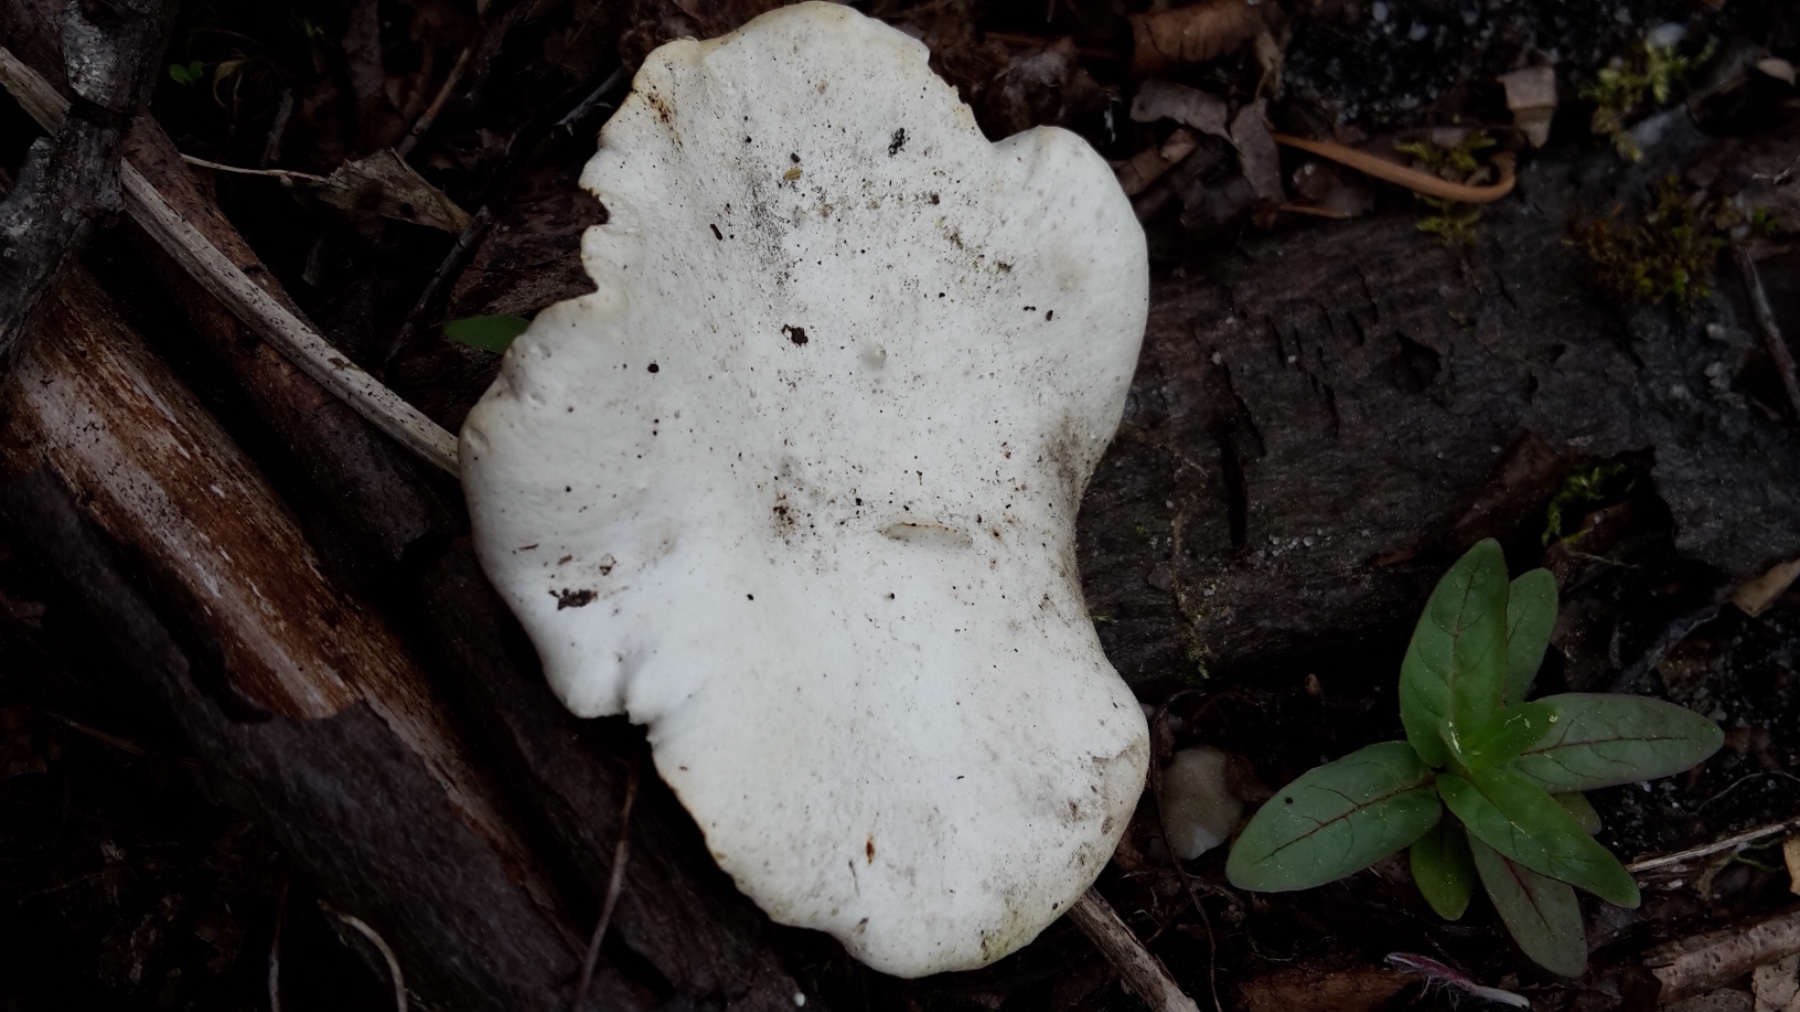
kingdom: Fungi
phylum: Basidiomycota
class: Agaricomycetes
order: Polyporales
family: Polyporaceae
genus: Cerioporus
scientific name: Cerioporus varius
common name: foranderlig stilkporesvamp
